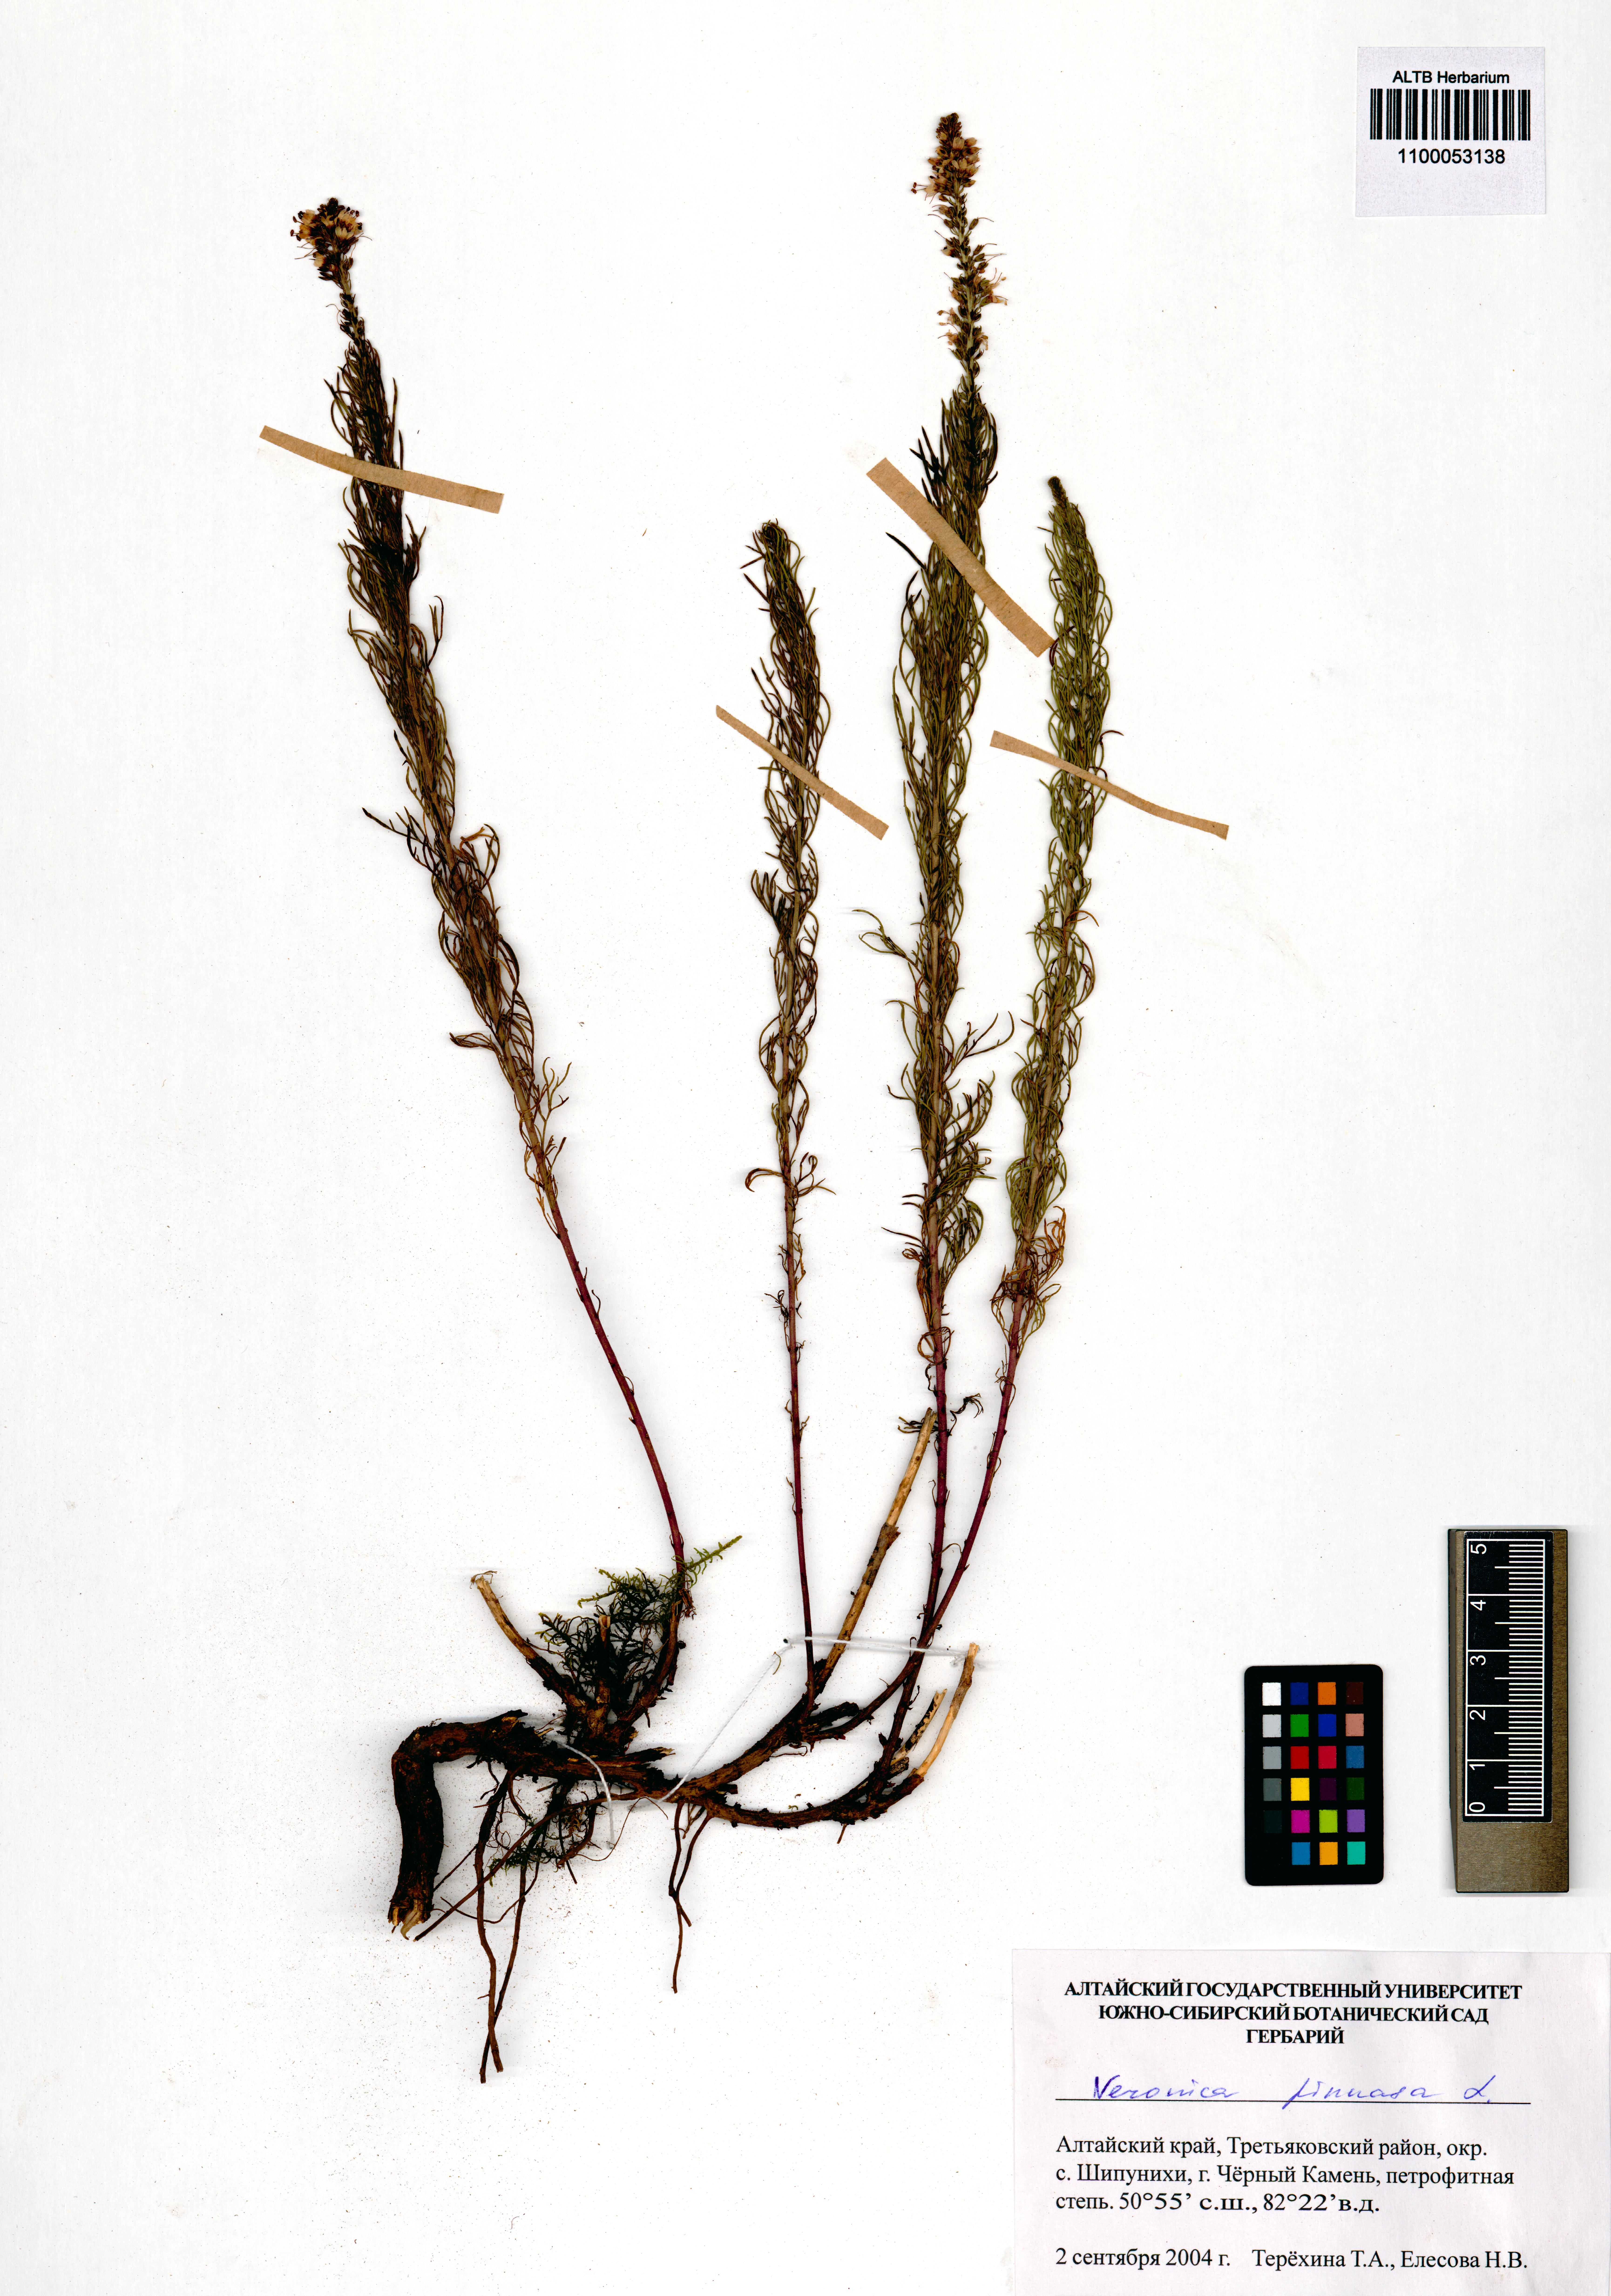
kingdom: Plantae
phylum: Tracheophyta
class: Magnoliopsida
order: Lamiales
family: Plantaginaceae
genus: Veronica
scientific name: Veronica pinnata
